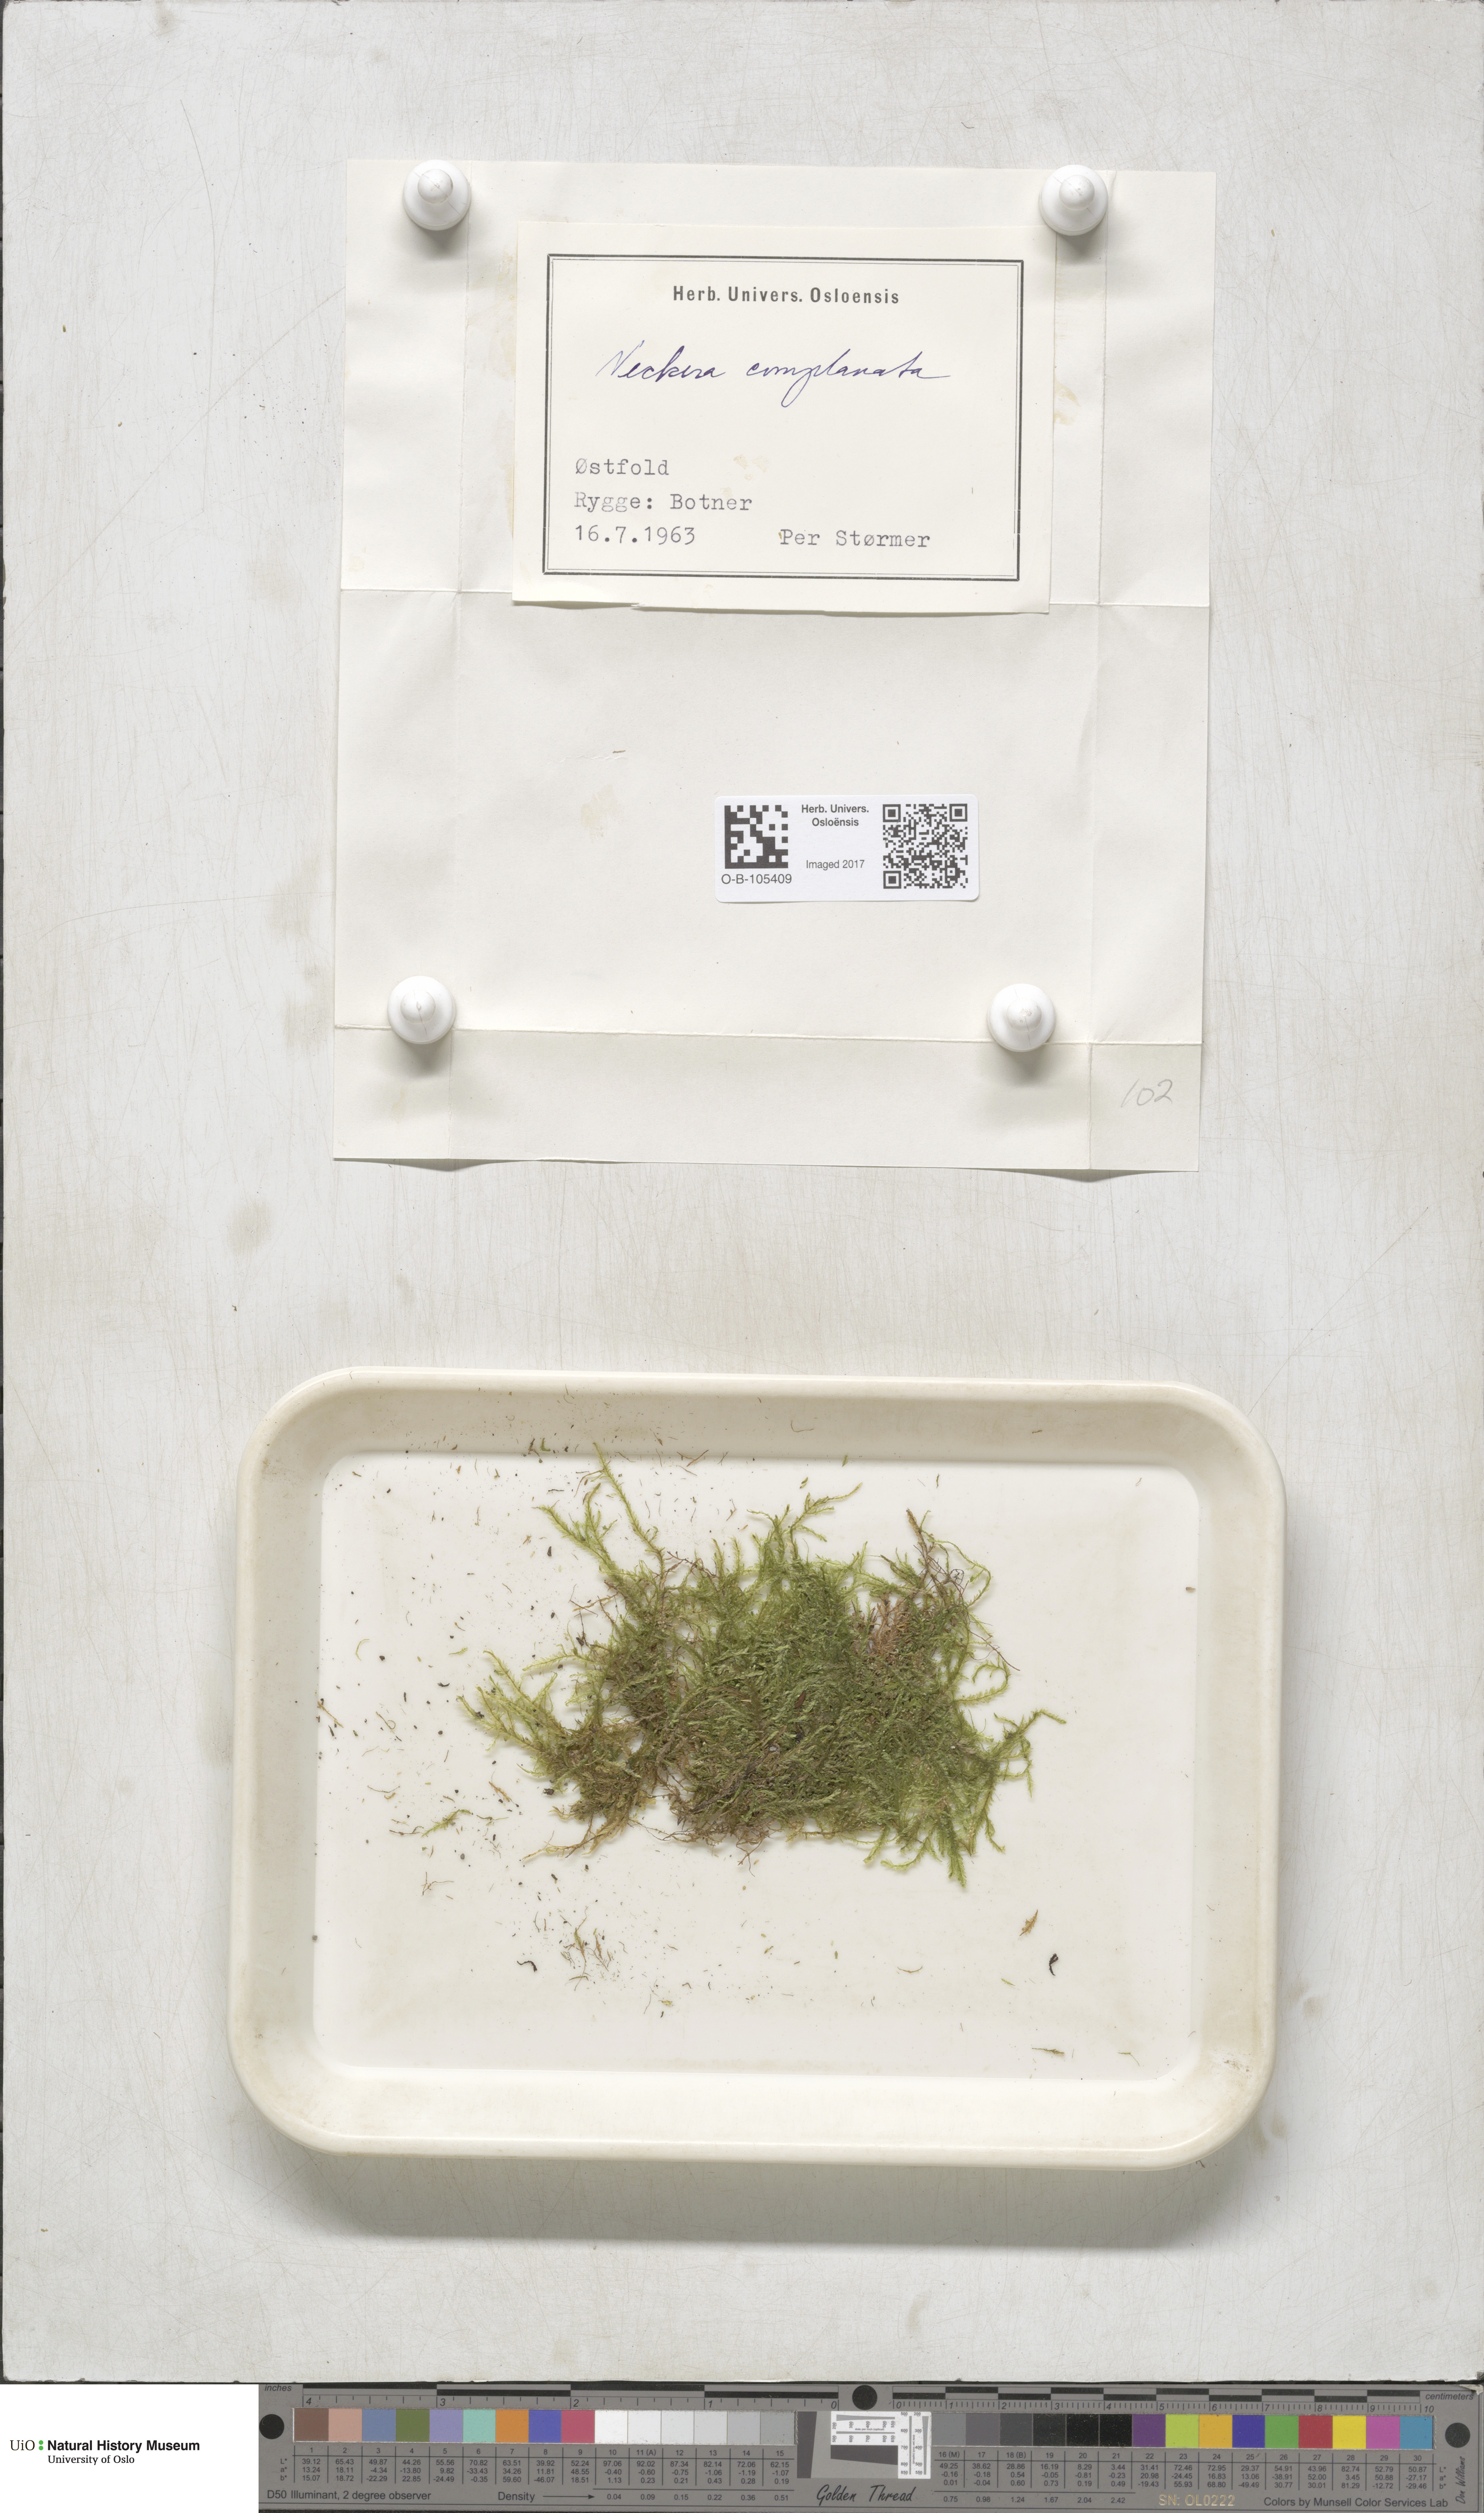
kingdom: Plantae
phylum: Bryophyta
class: Bryopsida
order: Hypnales
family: Neckeraceae
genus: Alleniella
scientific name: Alleniella complanata
